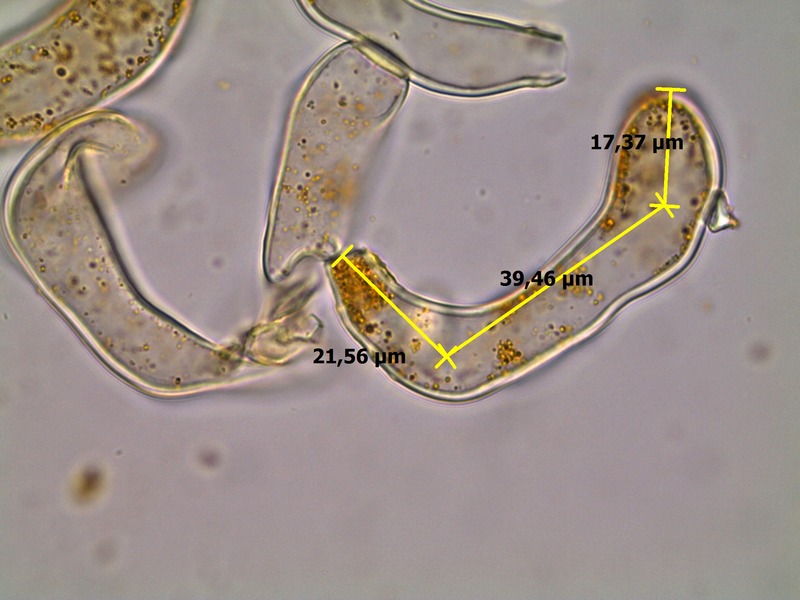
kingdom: Fungi
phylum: Basidiomycota
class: Pucciniomycetes
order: Pucciniales
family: Phragmidiaceae
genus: Phragmidium
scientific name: Phragmidium rubi-idaei
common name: Raspberry rust
